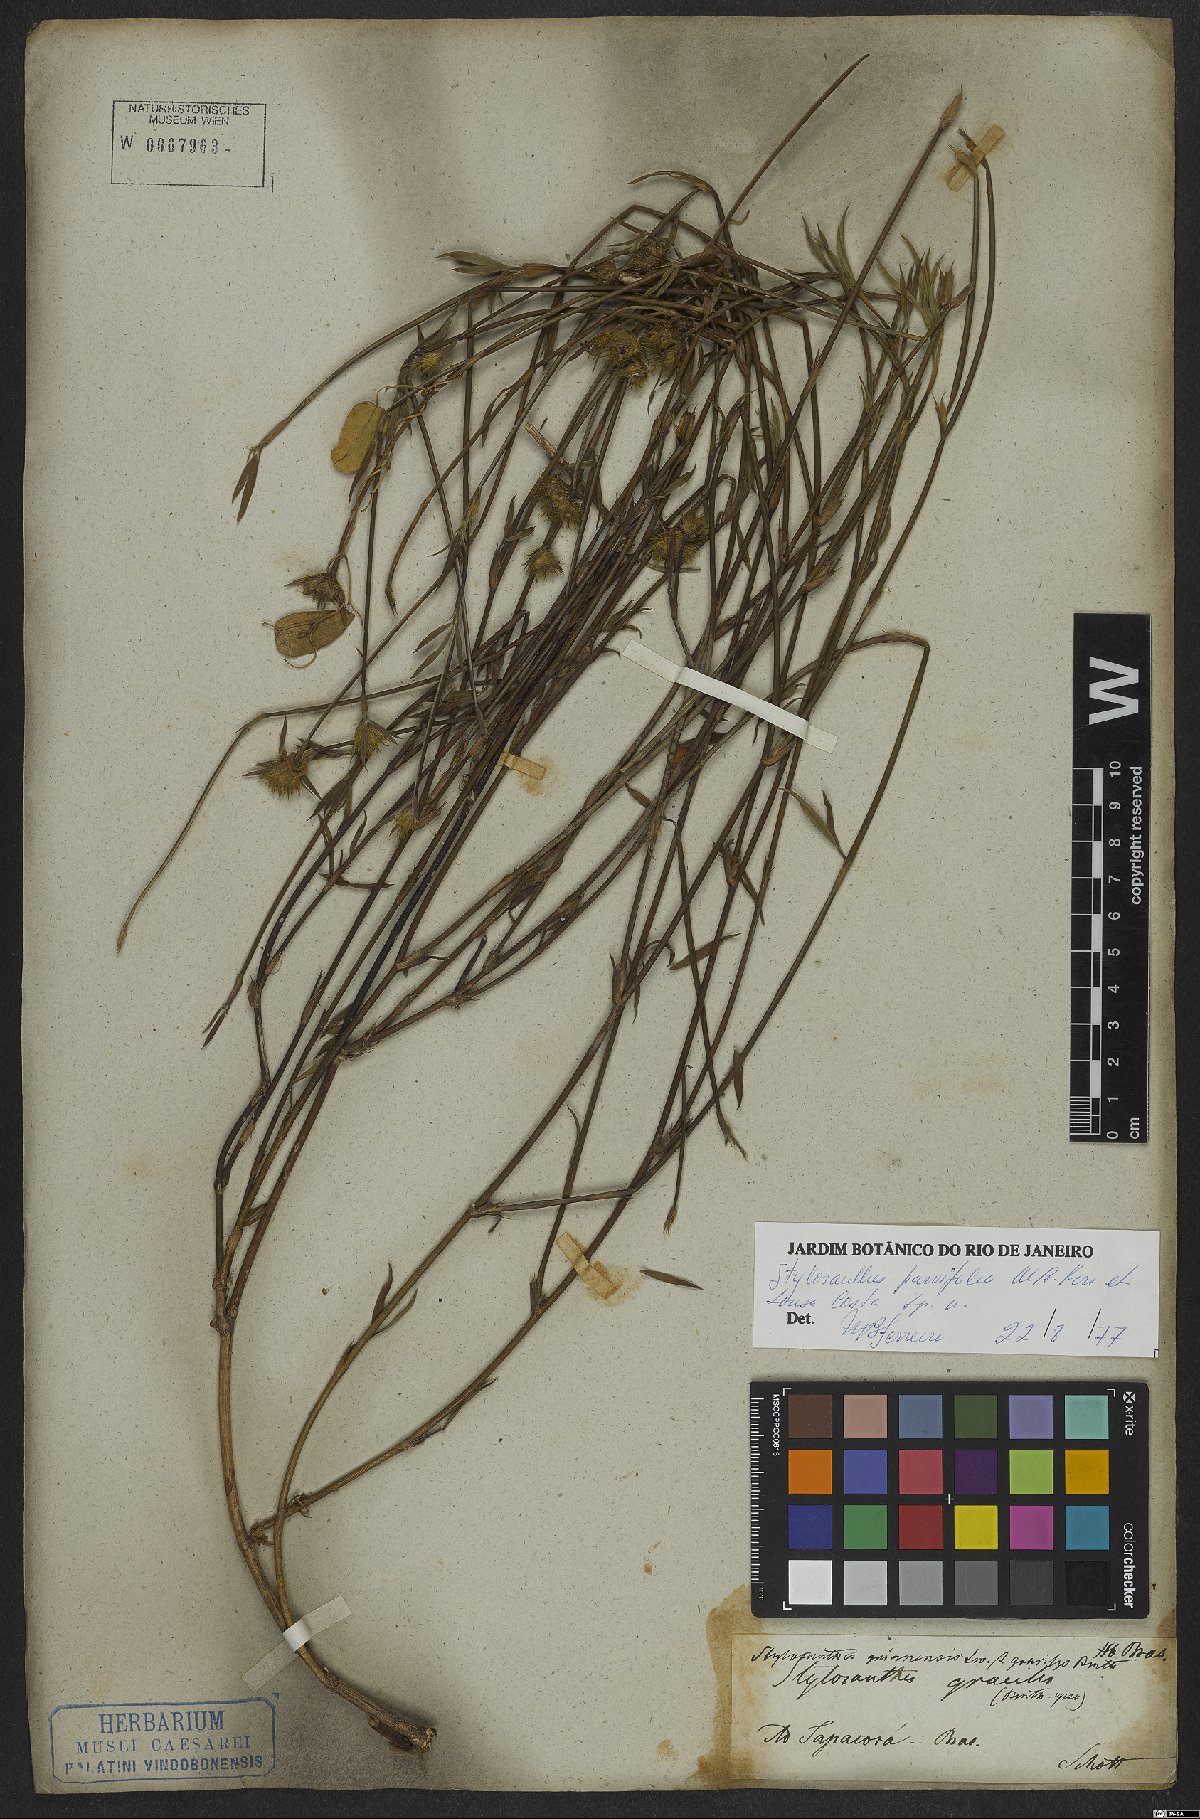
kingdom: Plantae
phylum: Tracheophyta
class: Magnoliopsida
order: Fabales
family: Fabaceae
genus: Stylosanthes
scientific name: Stylosanthes
